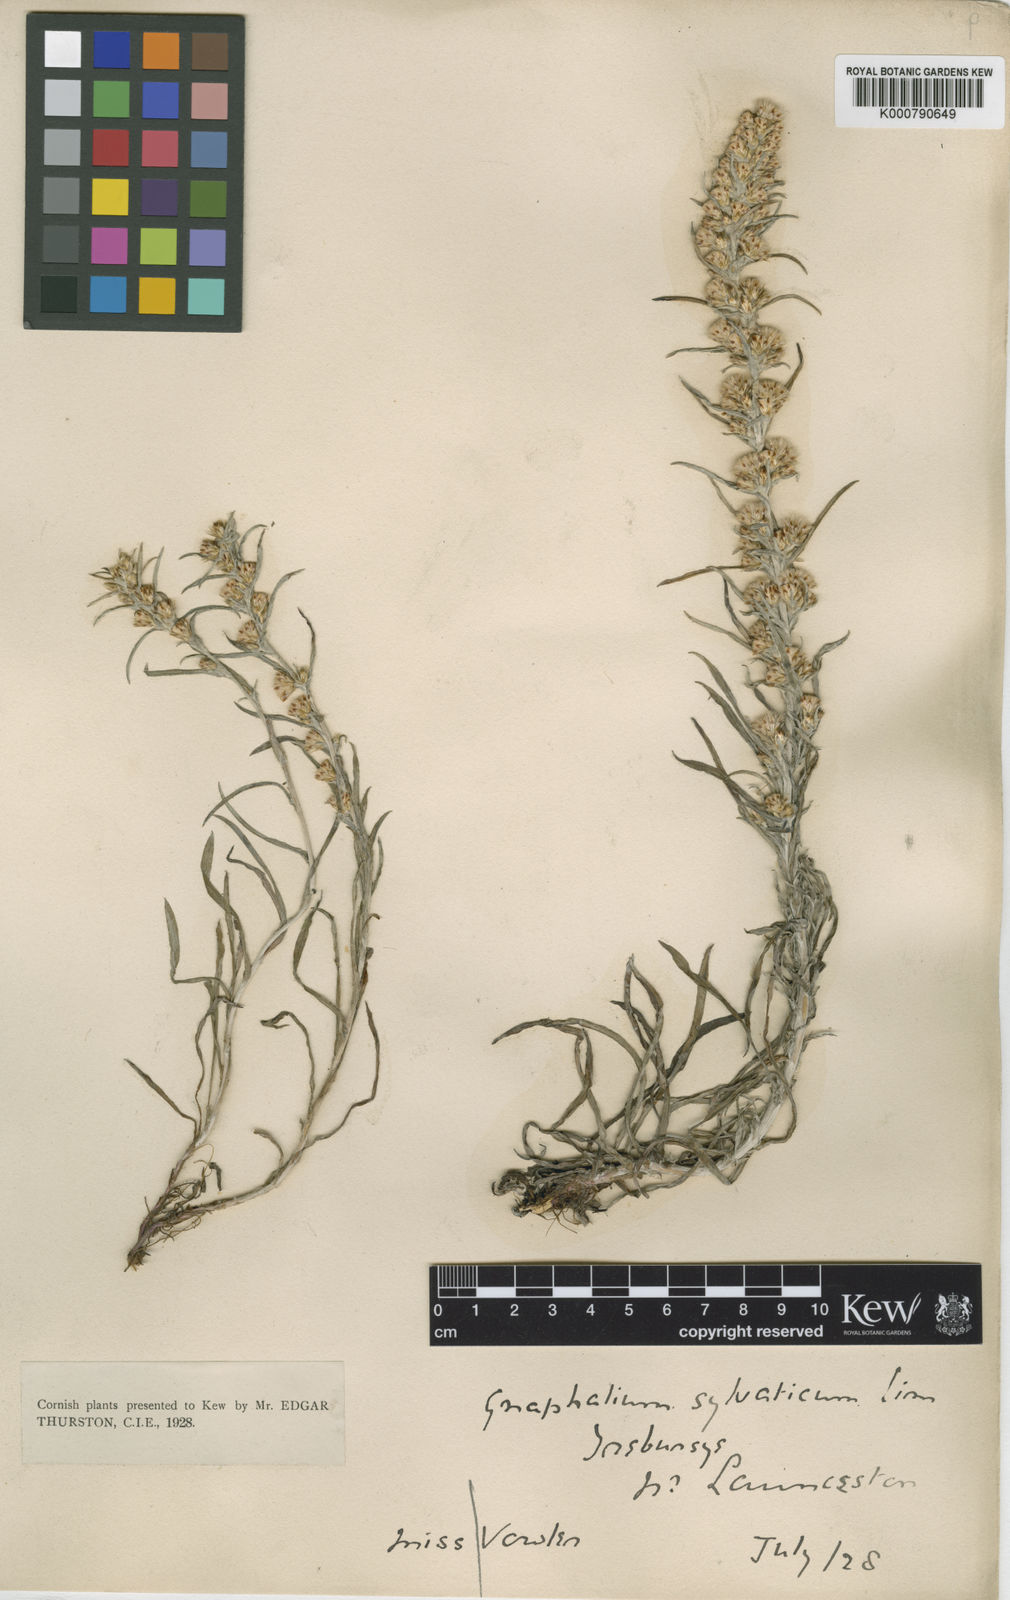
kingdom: Plantae
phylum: Tracheophyta
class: Magnoliopsida
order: Asterales
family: Asteraceae
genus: Omalotheca
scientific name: Omalotheca sylvatica
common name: Heath cudweed
